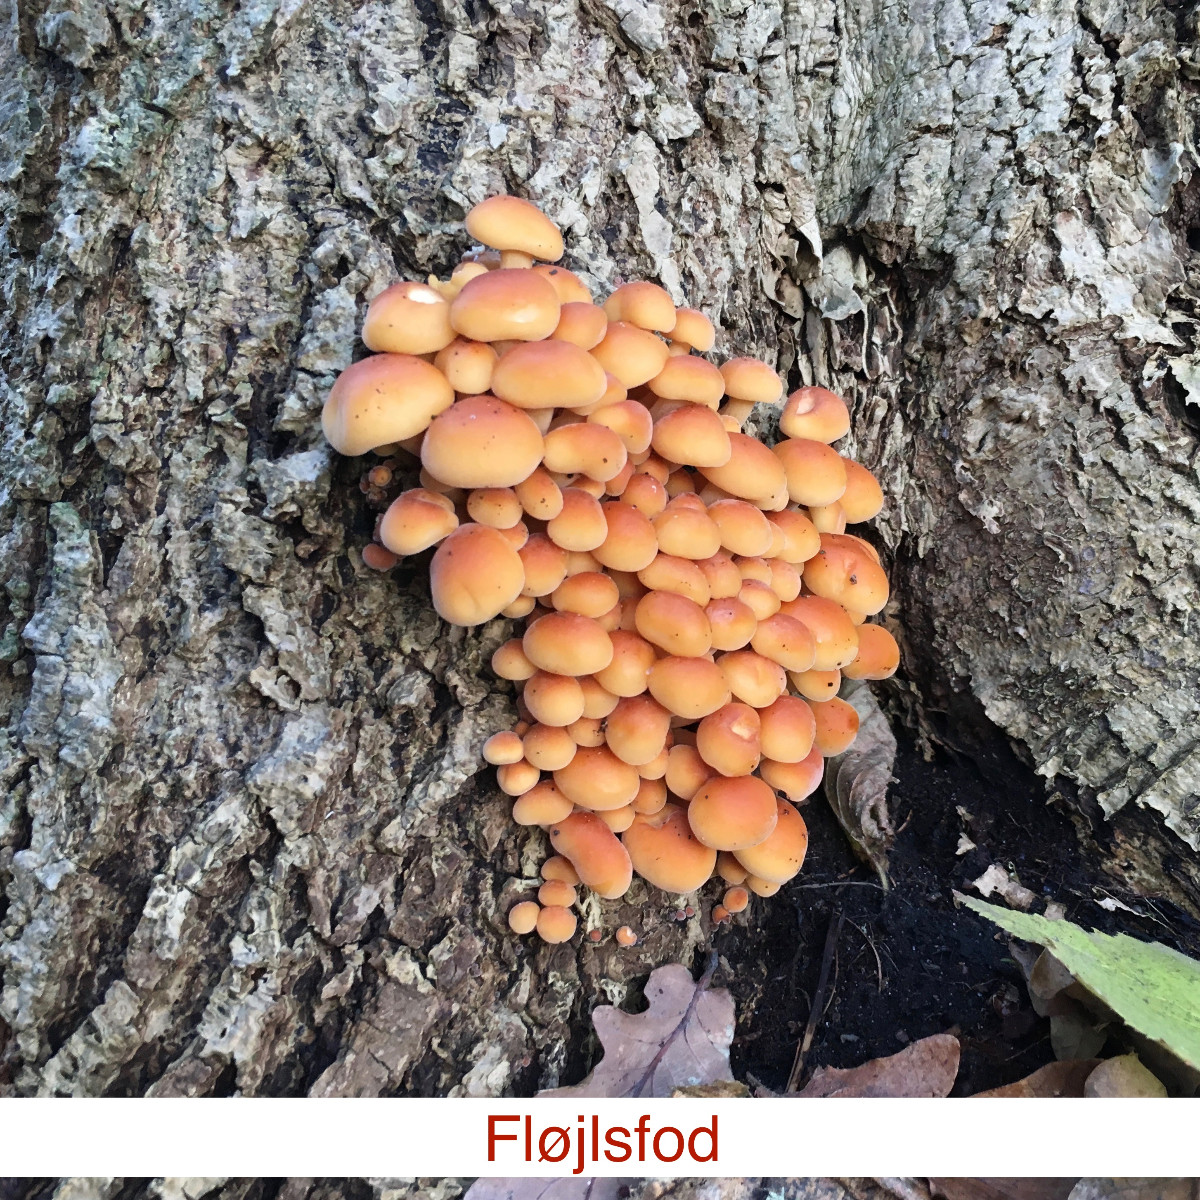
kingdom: Fungi
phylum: Basidiomycota
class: Agaricomycetes
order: Agaricales
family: Physalacriaceae
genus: Flammulina
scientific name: Flammulina velutipes
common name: gul fløjlsfod
